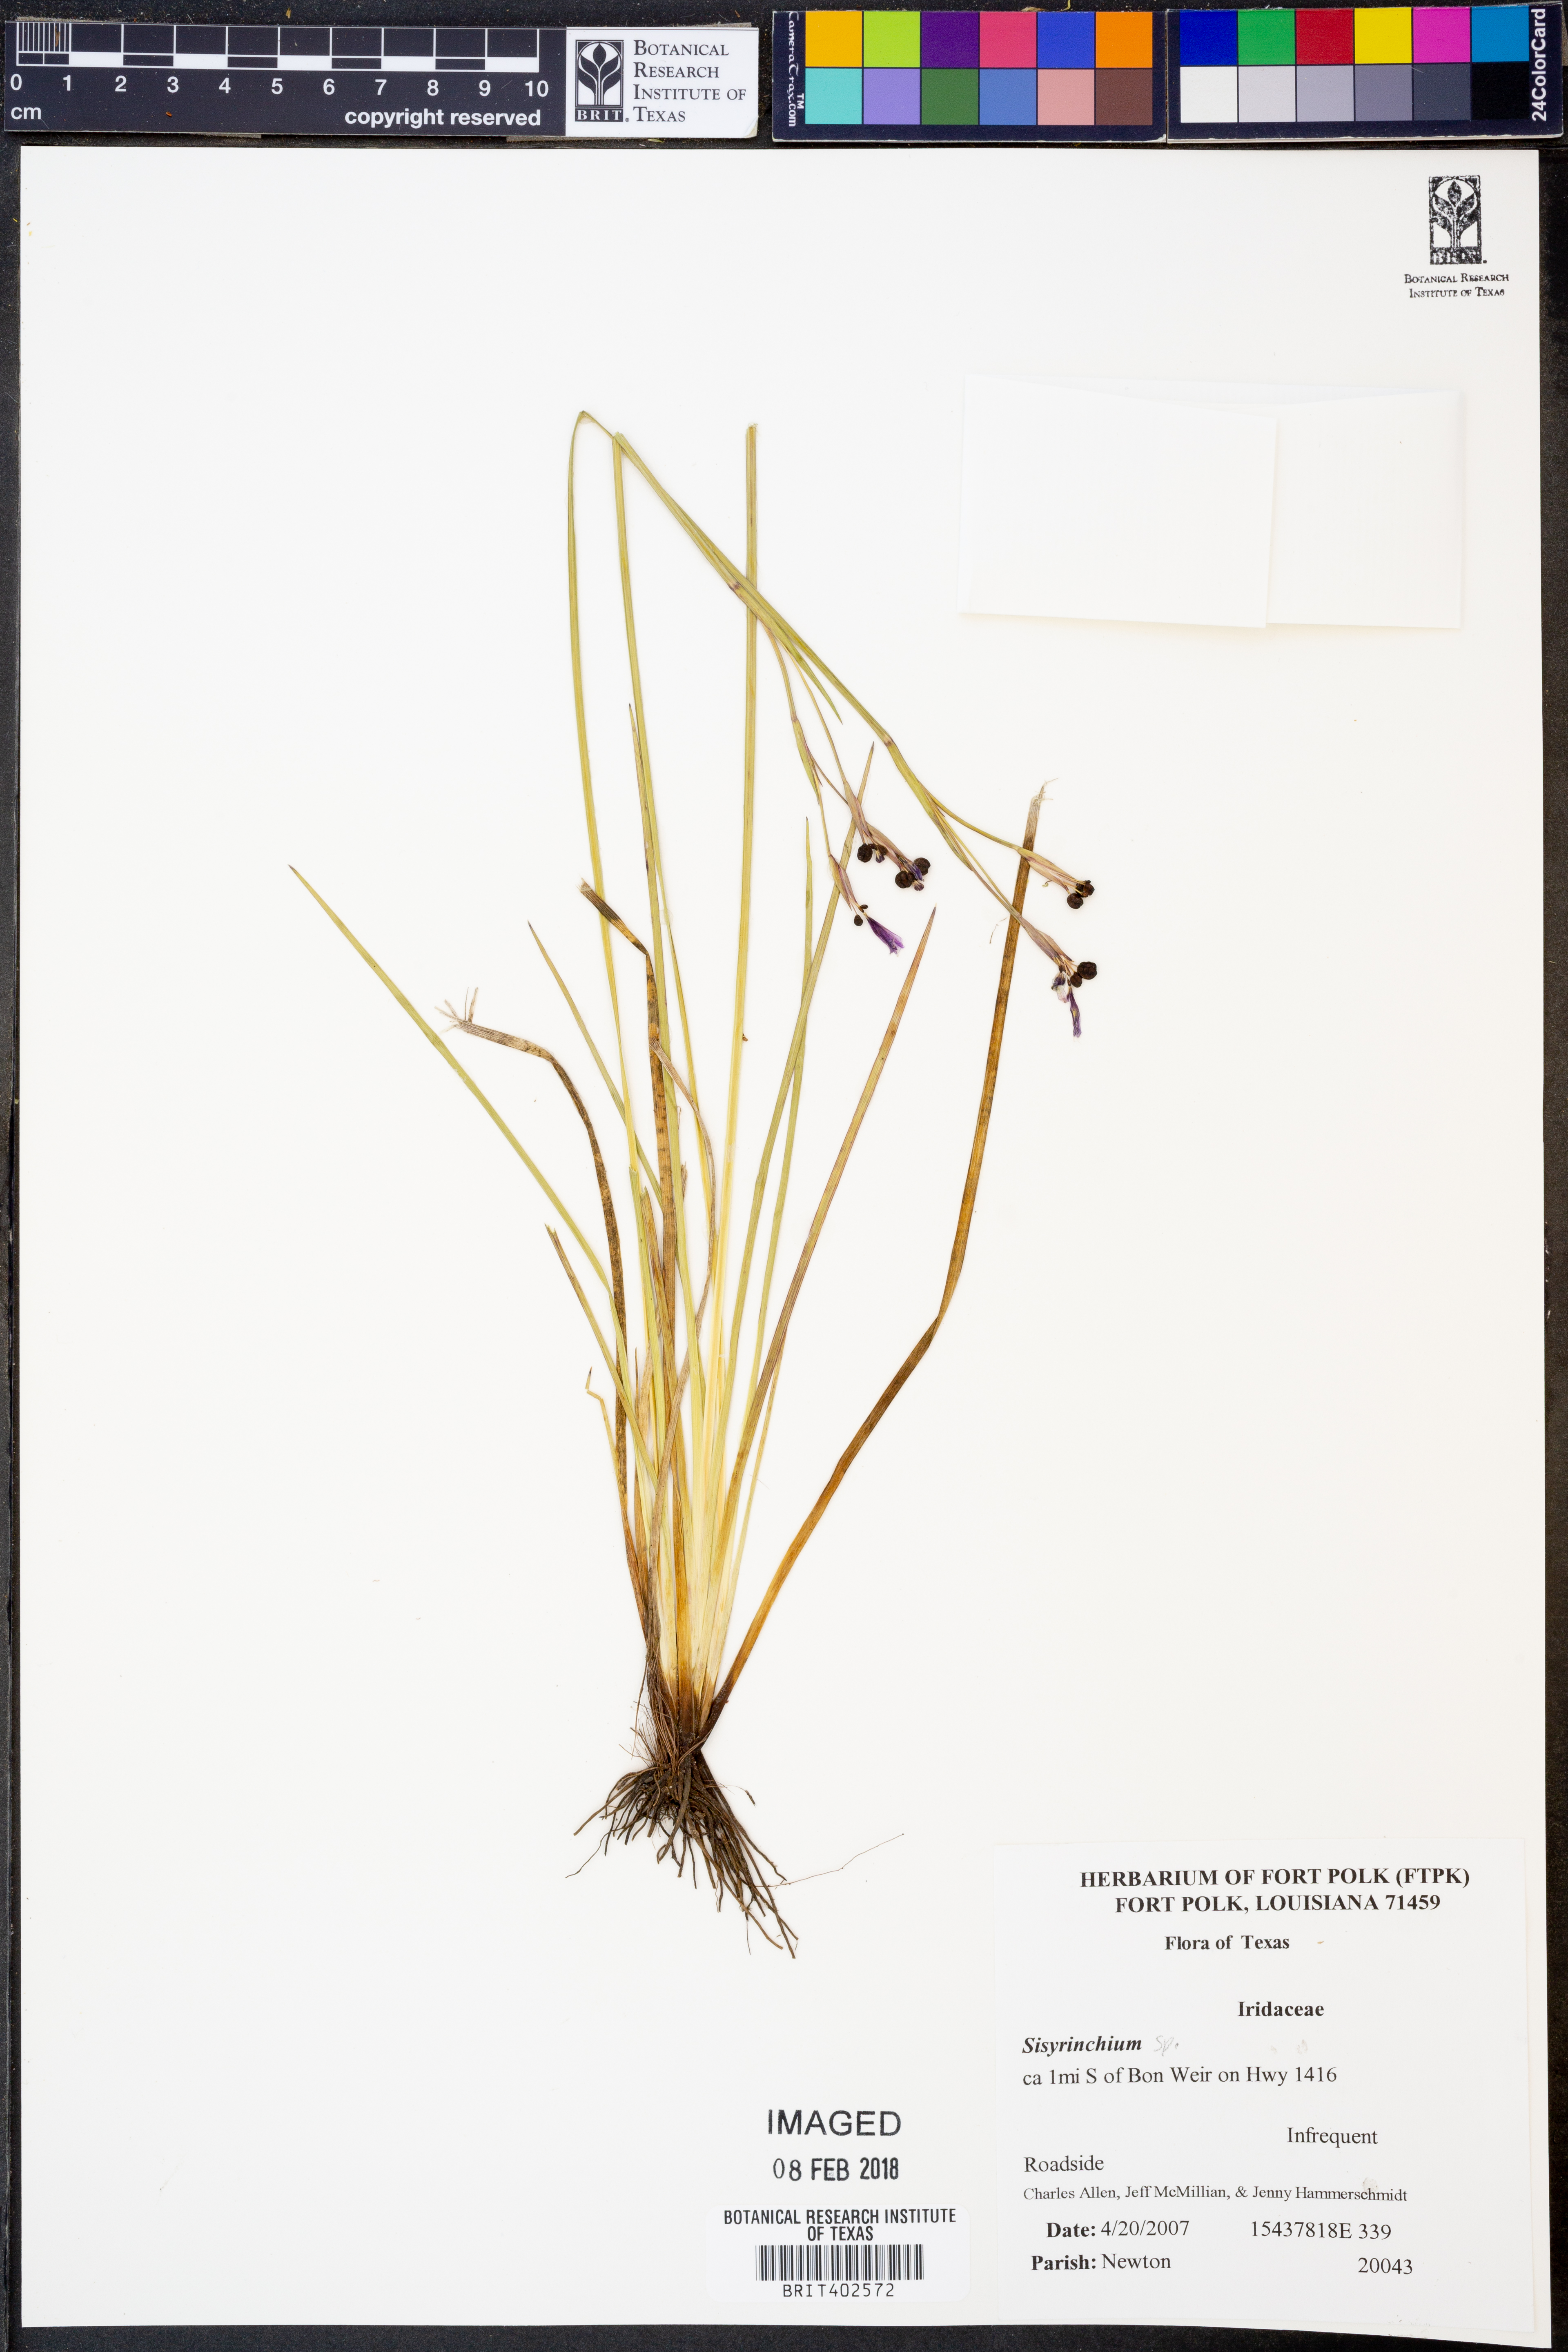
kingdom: Plantae
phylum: Tracheophyta
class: Liliopsida
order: Asparagales
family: Iridaceae
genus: Sisyrinchium
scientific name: Sisyrinchium
